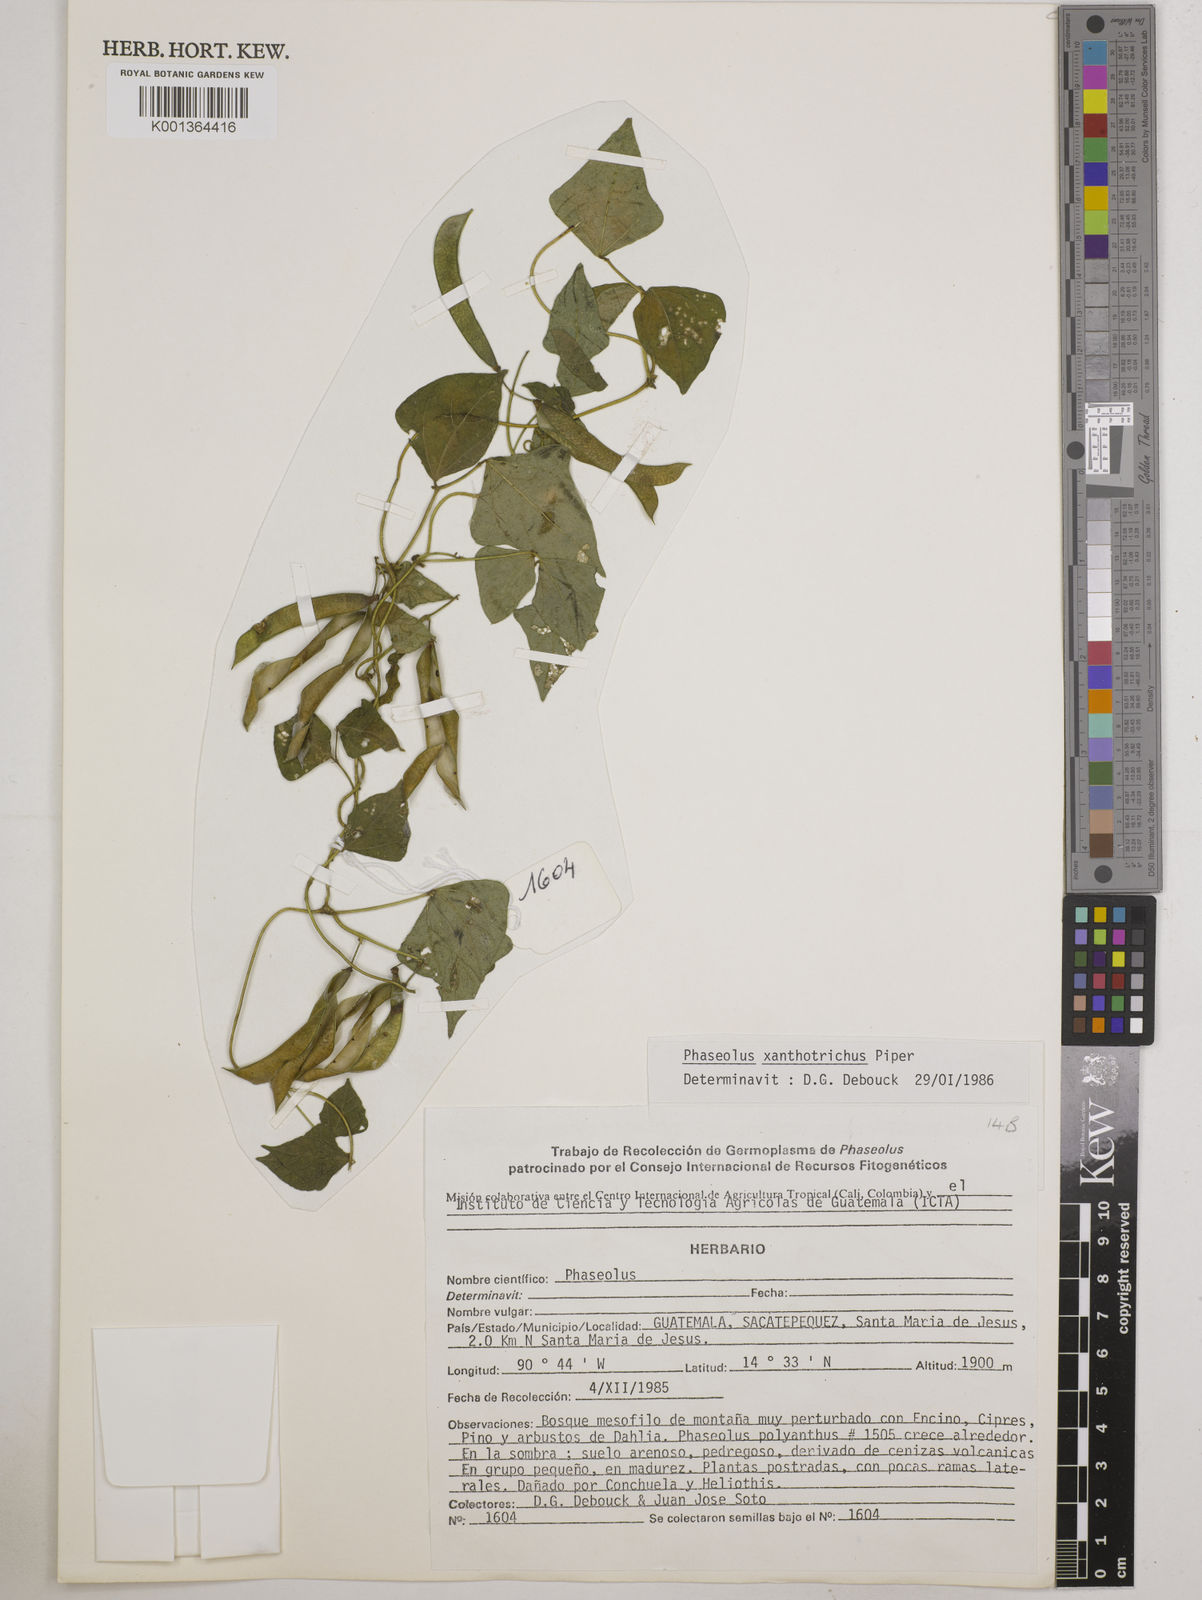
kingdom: Plantae
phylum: Tracheophyta
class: Magnoliopsida
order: Fabales
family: Fabaceae
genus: Phaseolus
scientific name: Phaseolus xanthotrichus
